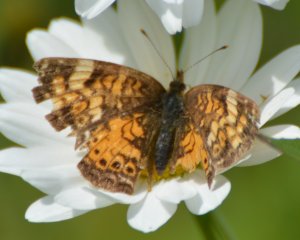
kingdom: Animalia
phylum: Arthropoda
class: Insecta
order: Lepidoptera
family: Nymphalidae
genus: Phyciodes
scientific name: Phyciodes tharos
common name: Northern Crescent
